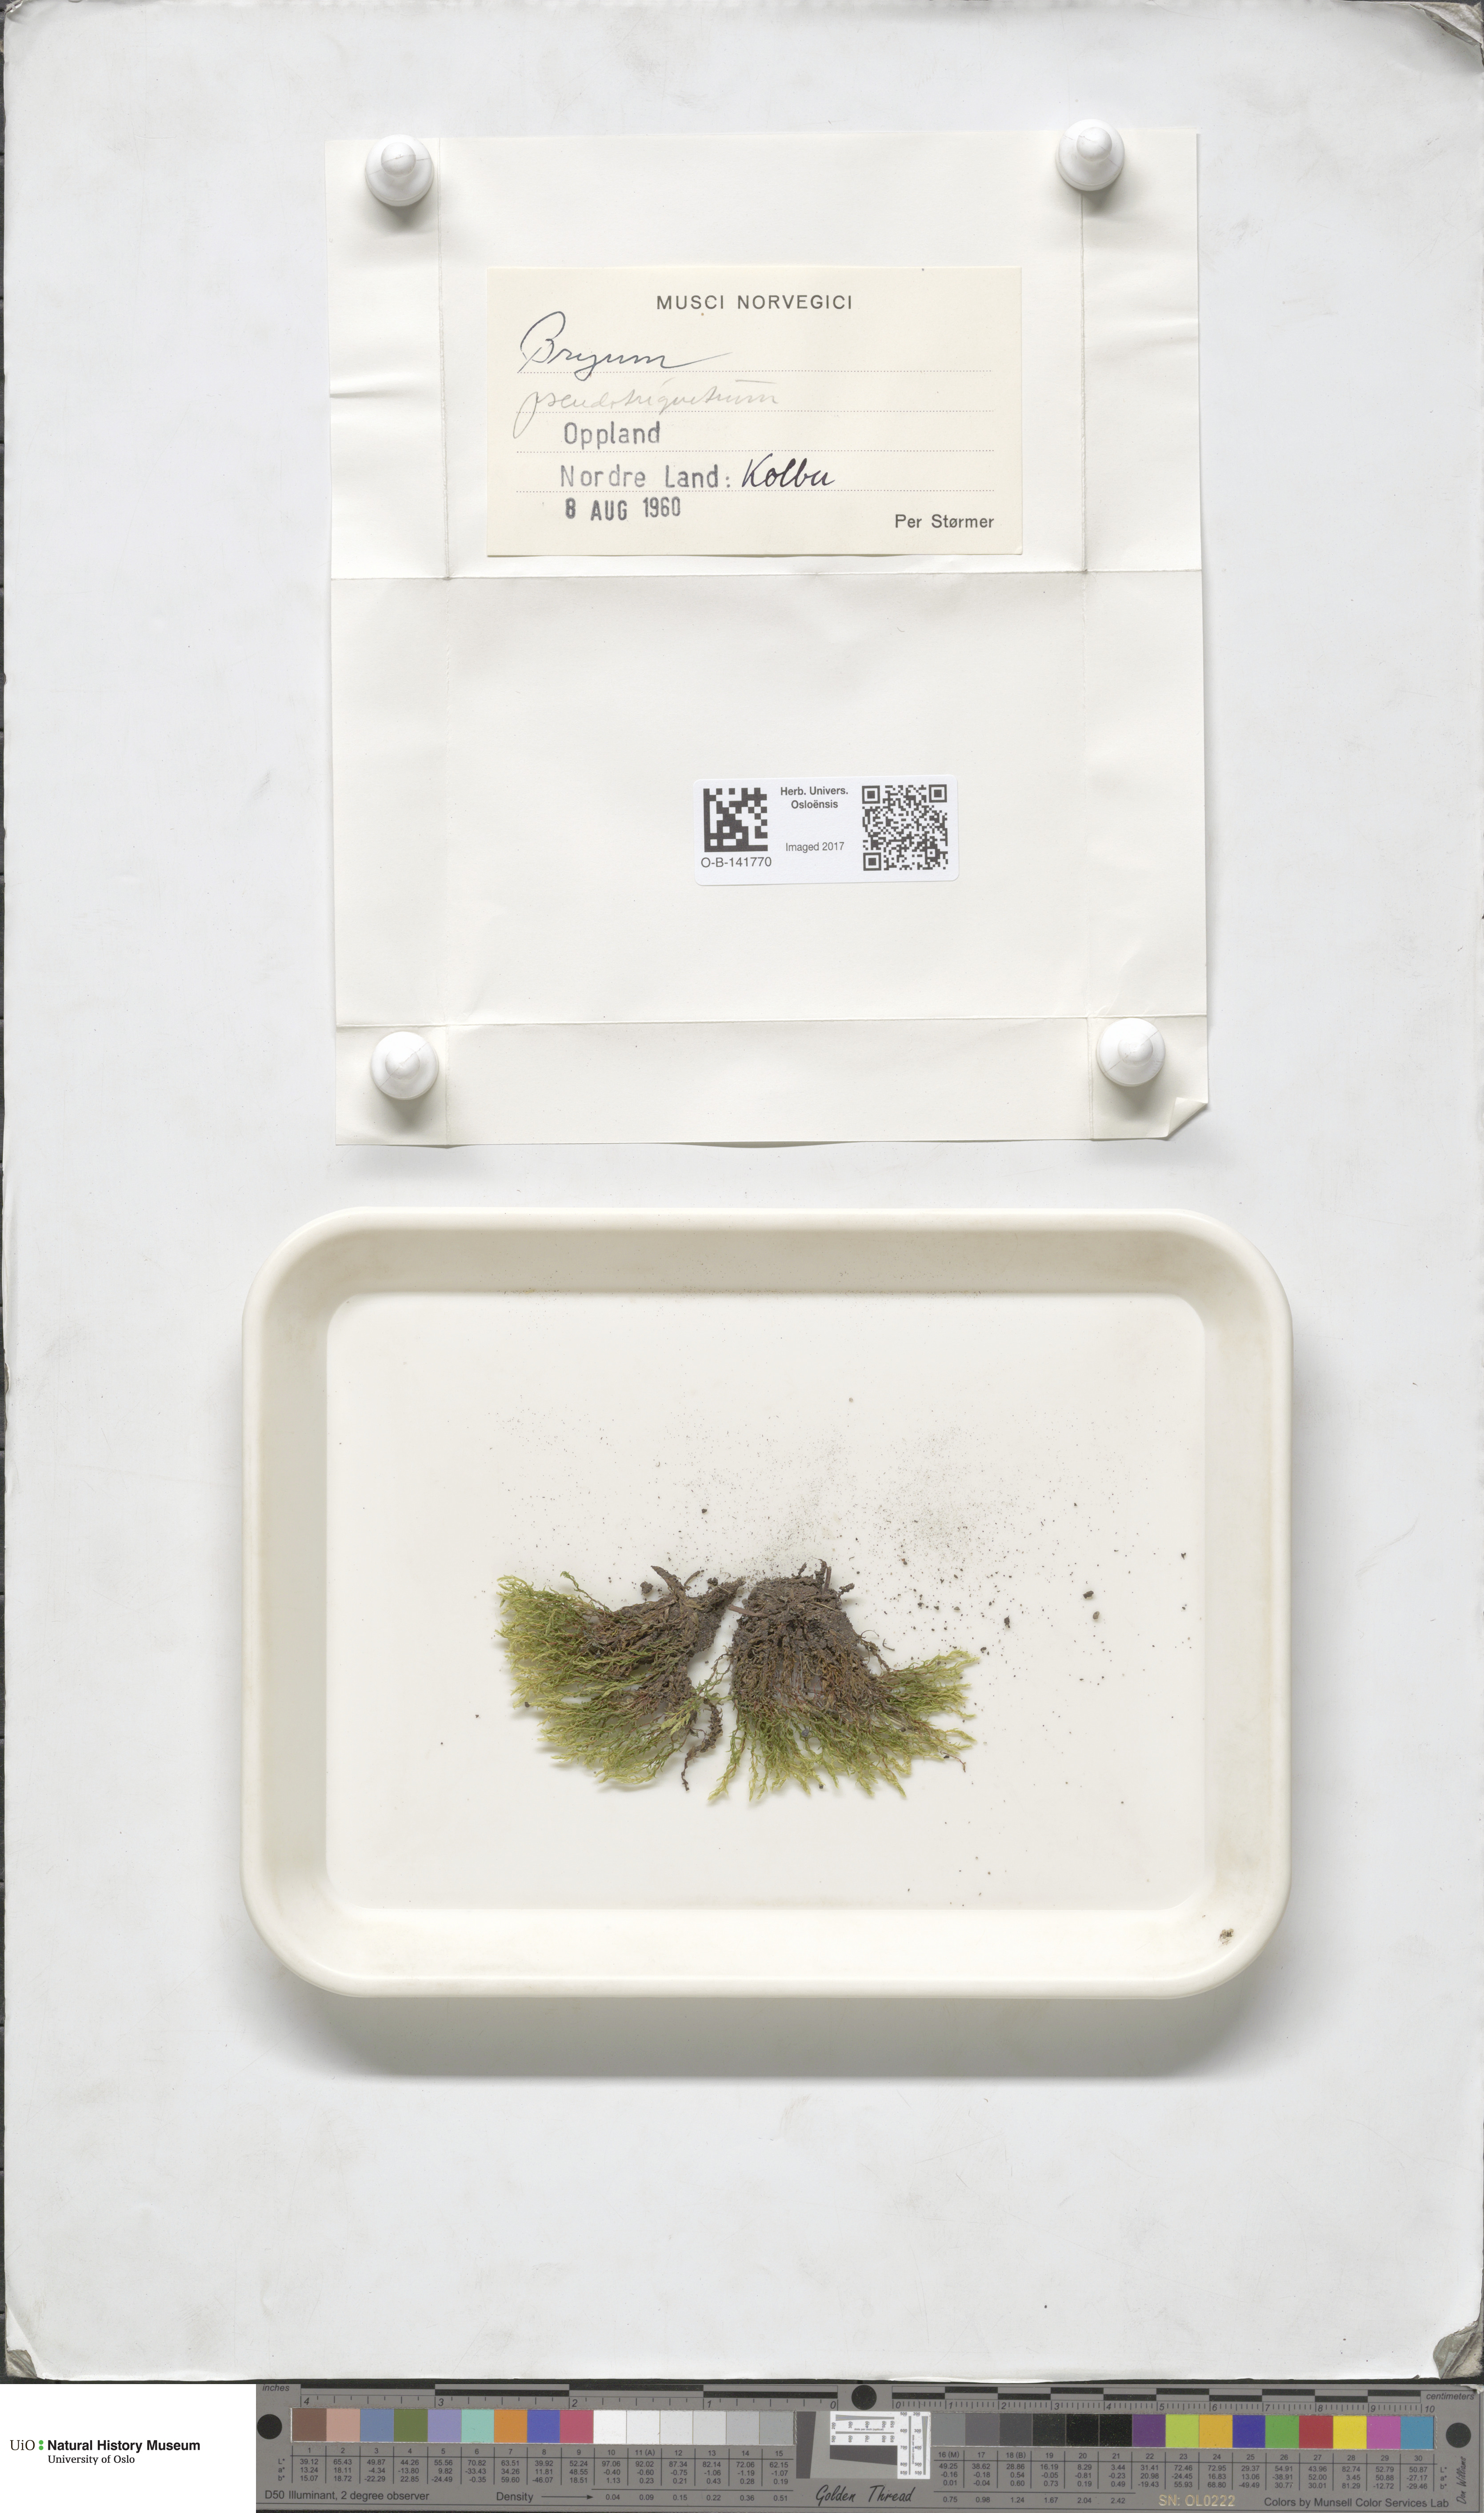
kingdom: Plantae
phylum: Bryophyta
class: Bryopsida
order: Bryales
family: Bryaceae
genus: Ptychostomum
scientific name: Ptychostomum pseudotriquetrum
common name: Long-leaved thread moss
